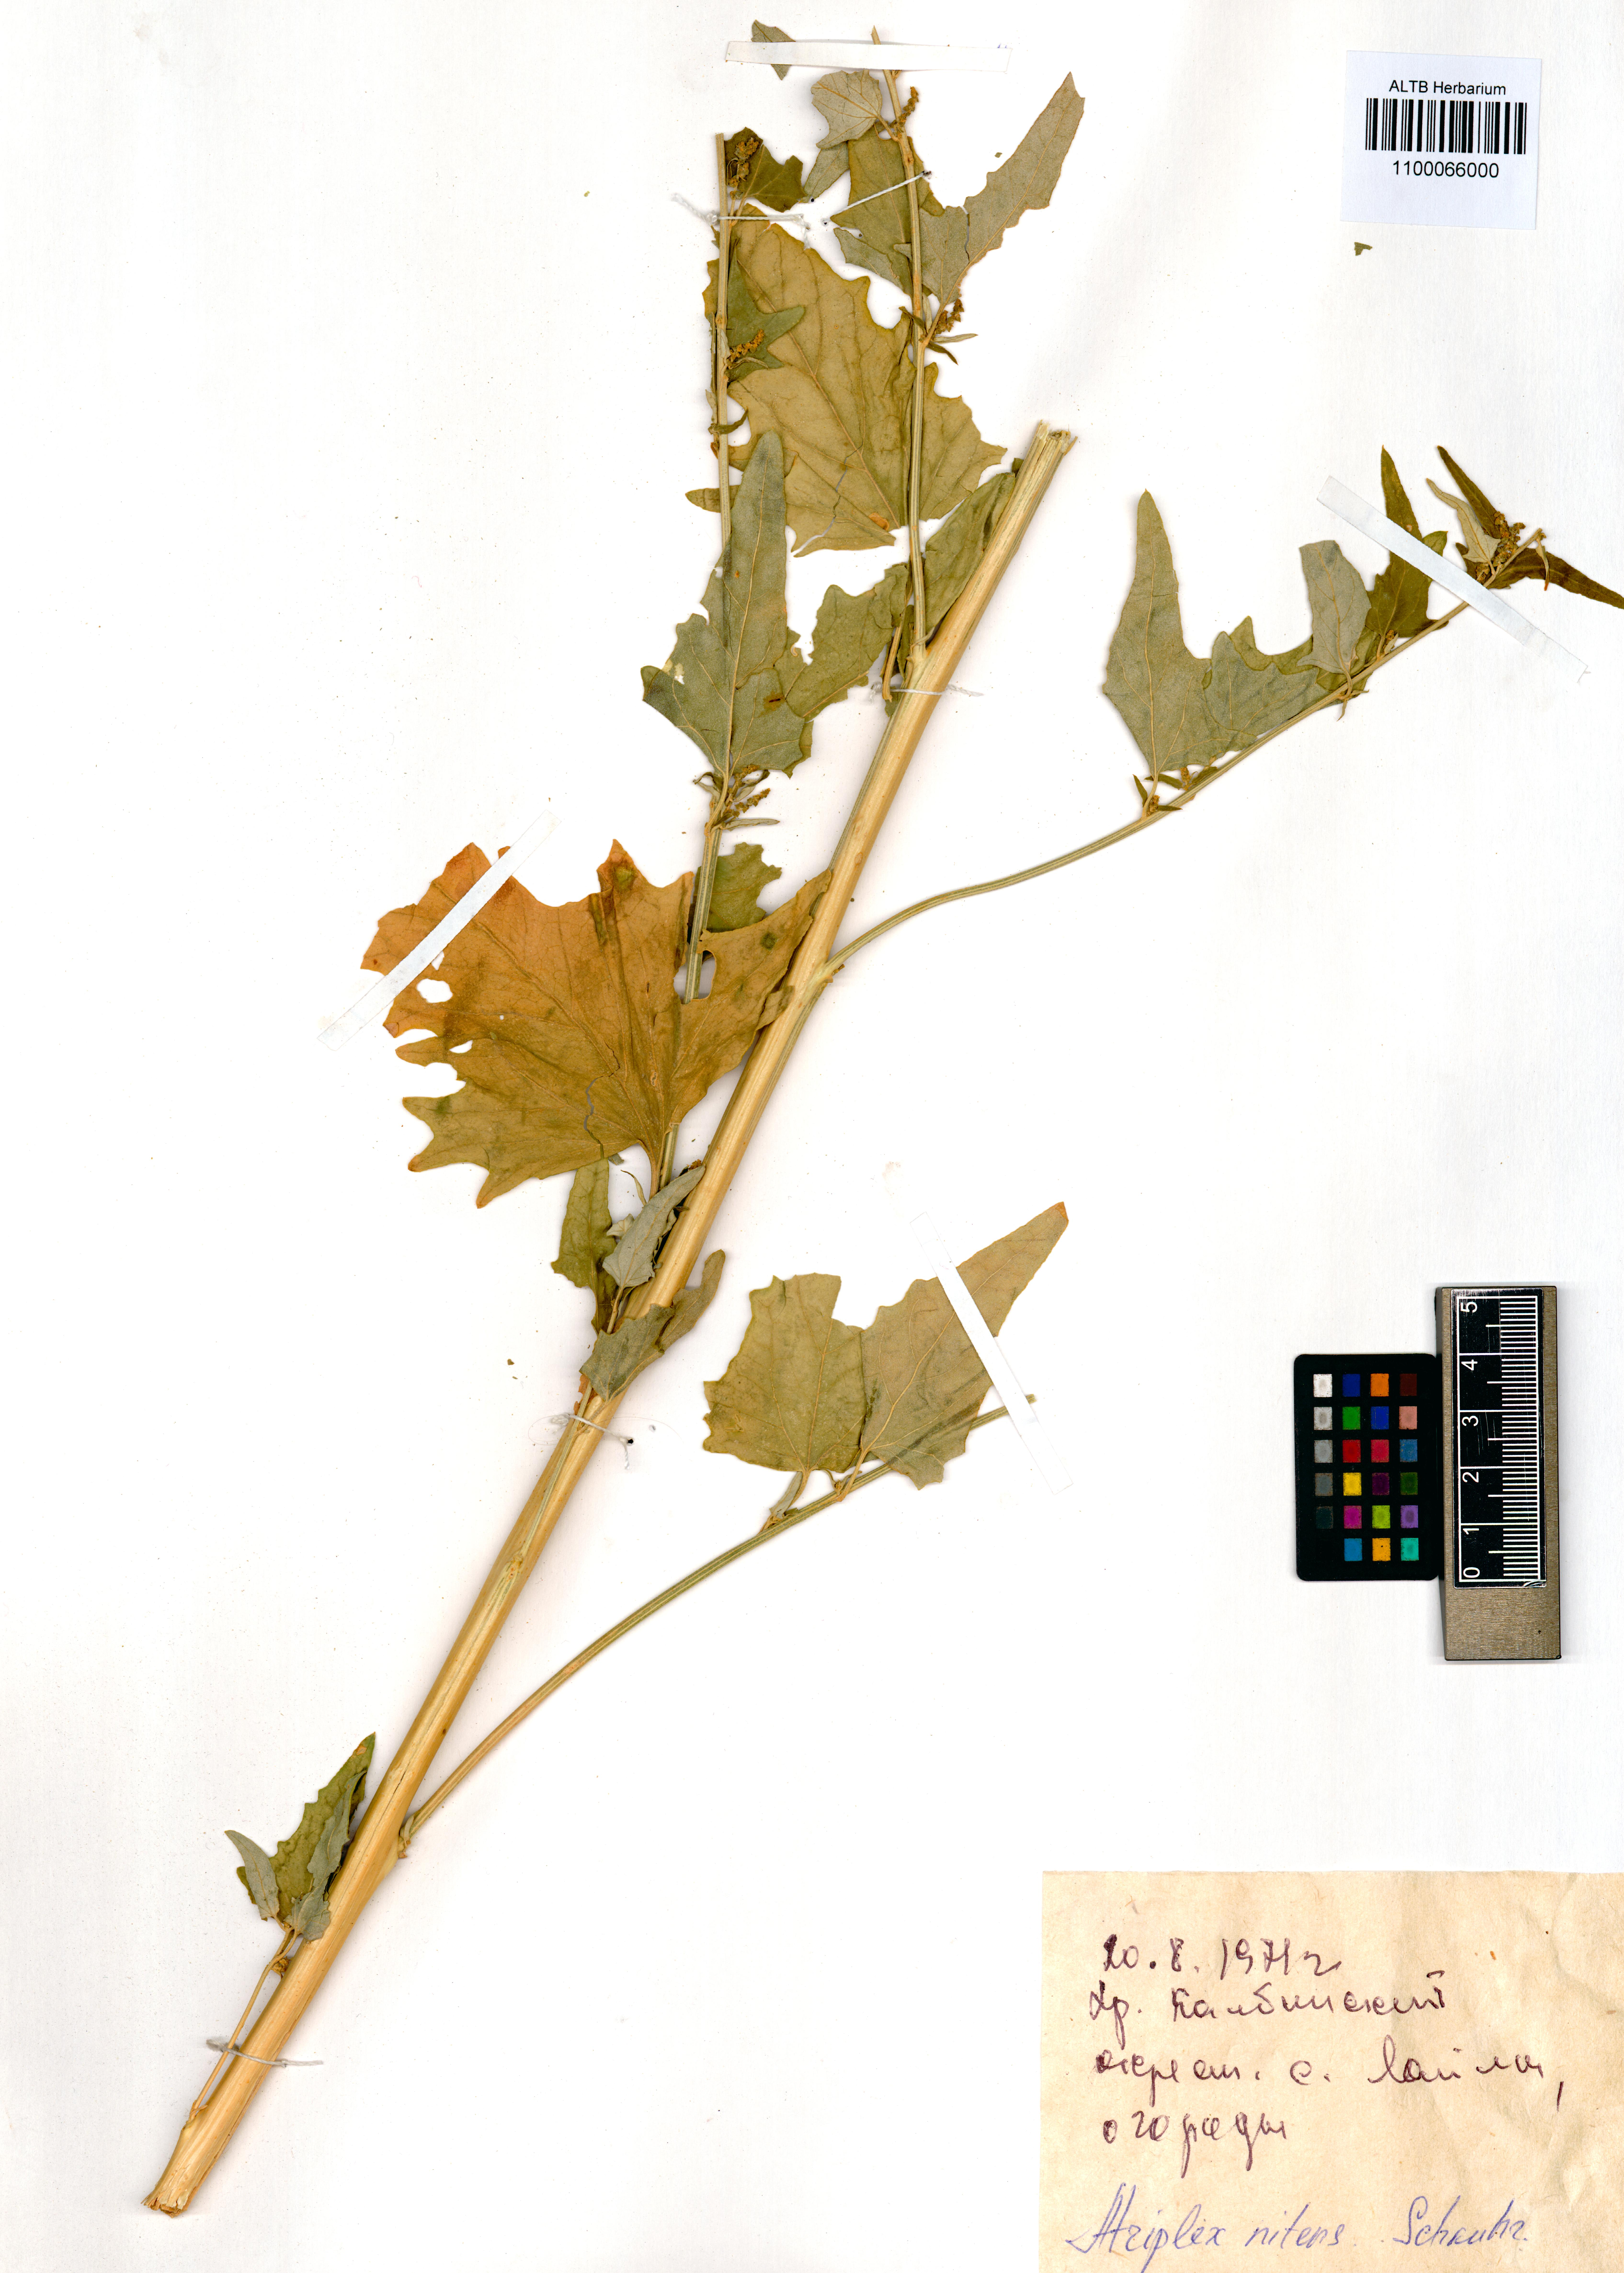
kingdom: Plantae
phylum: Tracheophyta
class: Magnoliopsida
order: Caryophyllales
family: Amaranthaceae
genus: Atriplex
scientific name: Atriplex sagittata
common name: Purple orache
